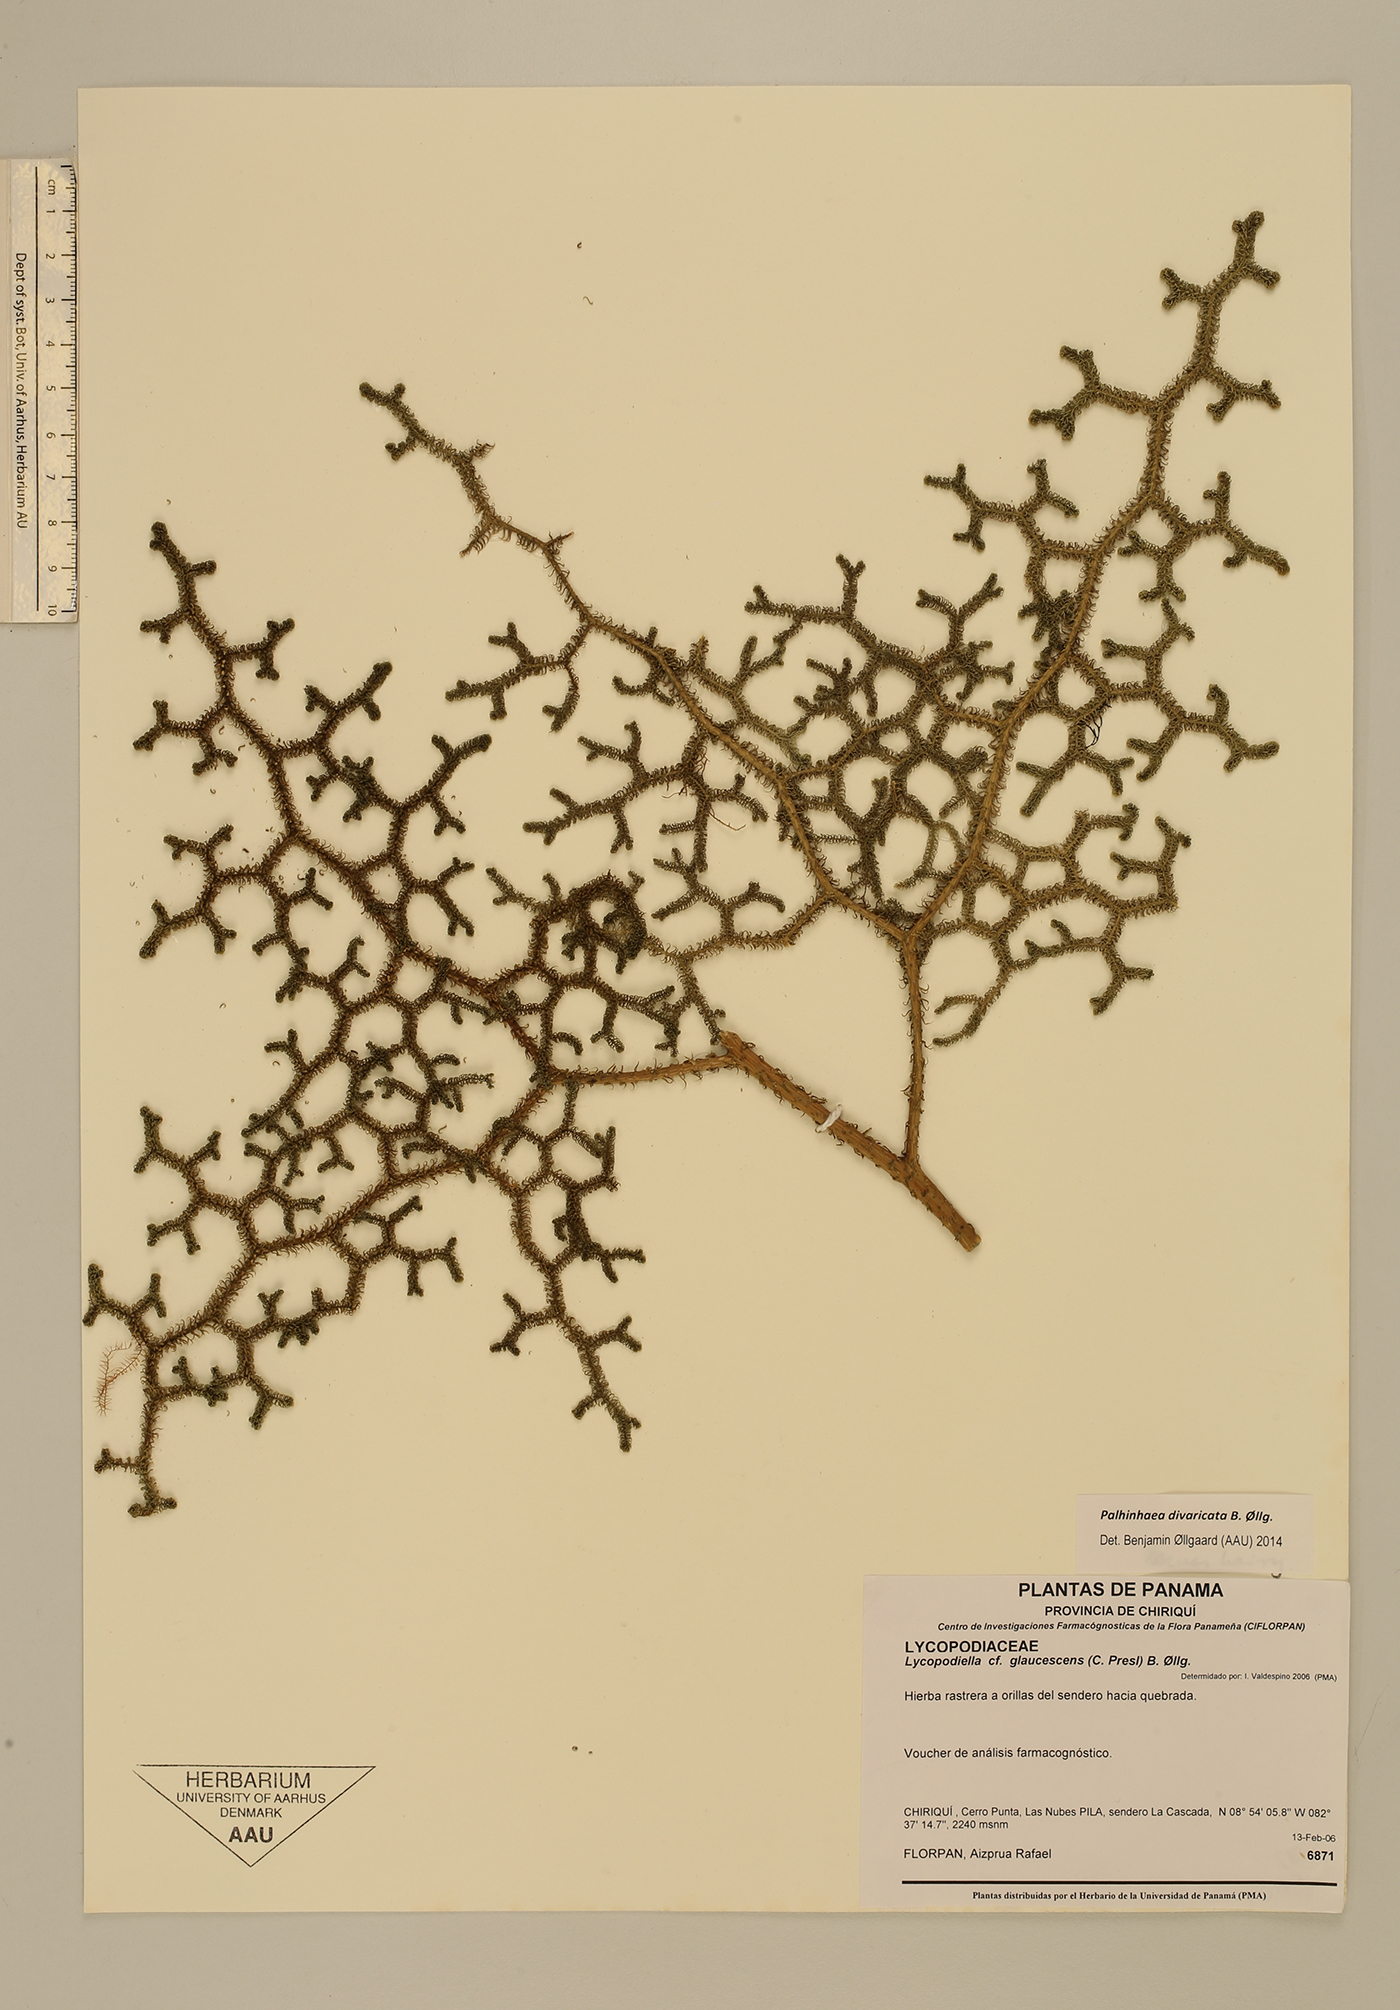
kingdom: Plantae
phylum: Tracheophyta
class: Lycopodiopsida
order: Lycopodiales
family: Lycopodiaceae
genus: Palhinhaea
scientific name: Palhinhaea divaricata
